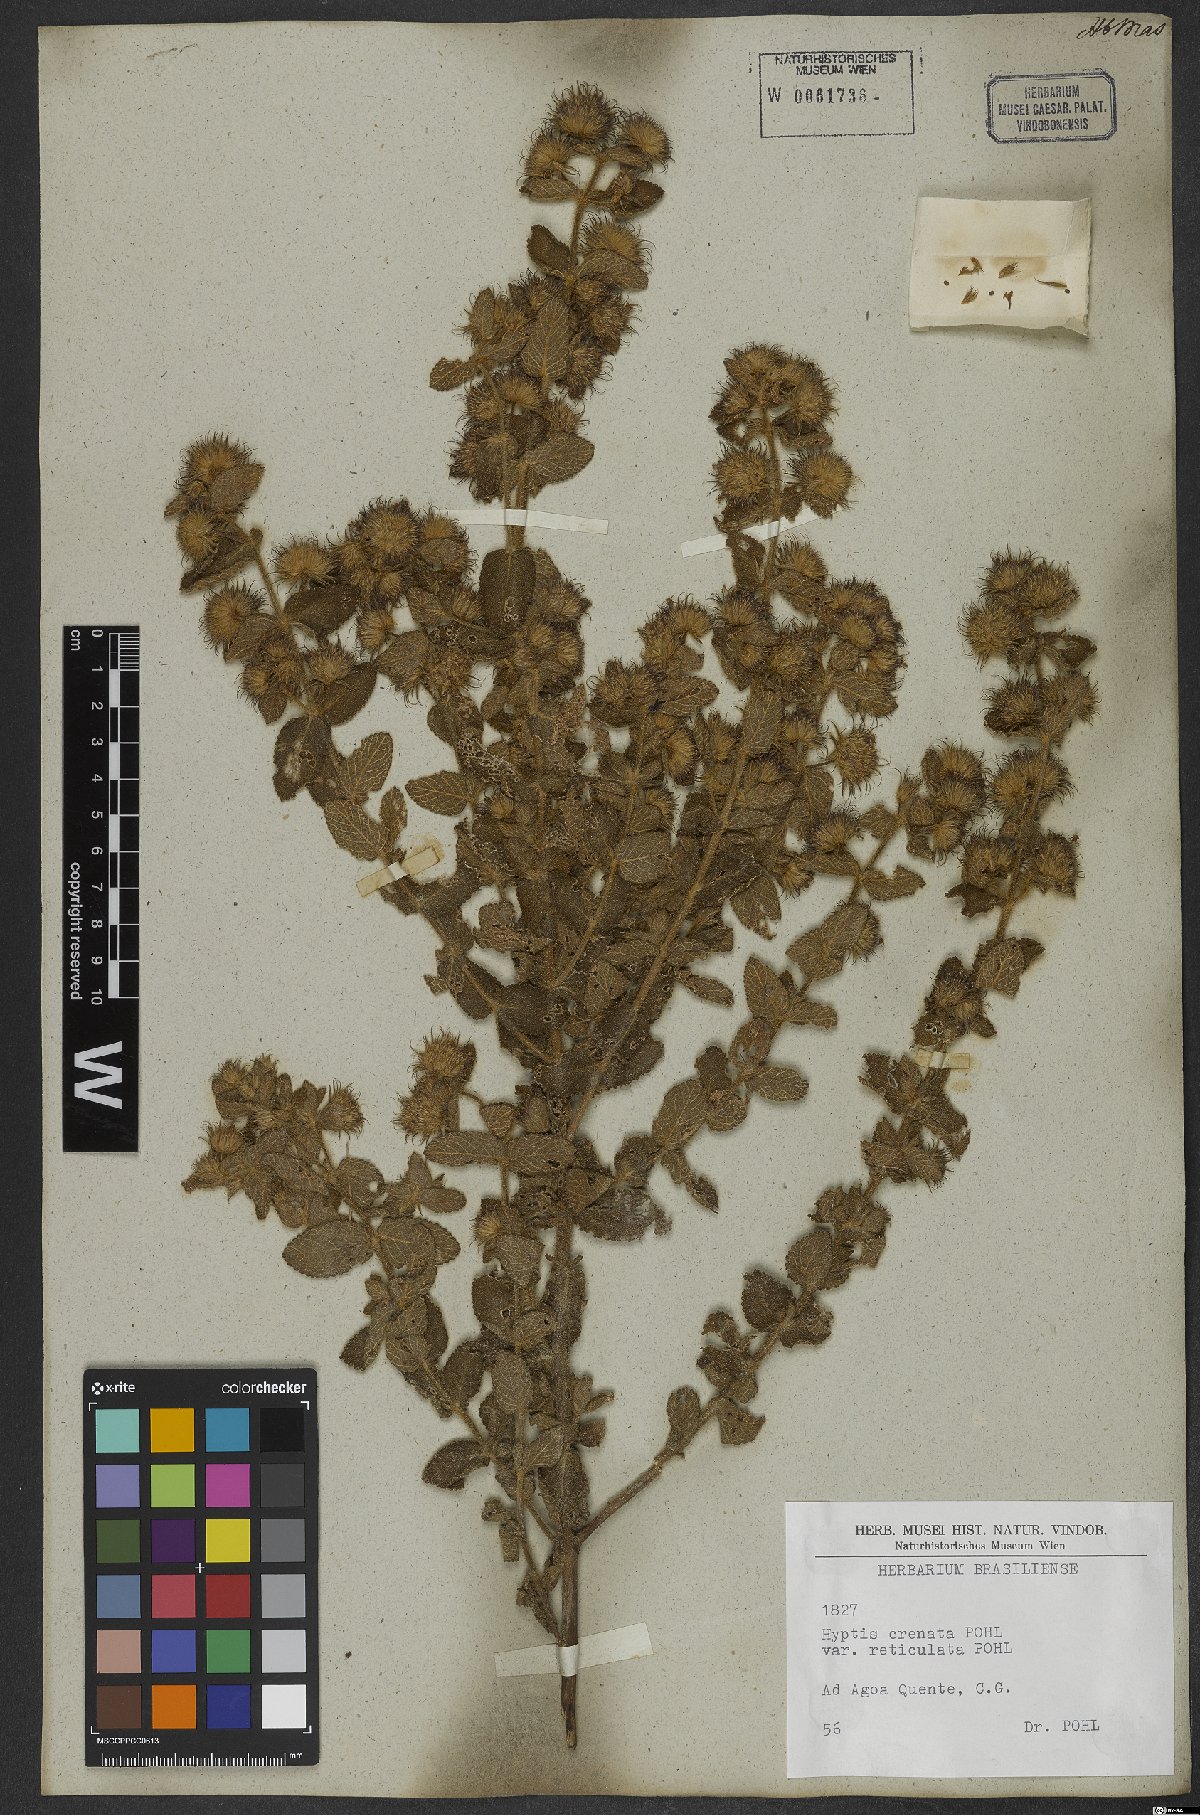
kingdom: Plantae
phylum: Tracheophyta
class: Magnoliopsida
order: Lamiales
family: Lamiaceae
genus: Hyptis
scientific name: Hyptis crenata
